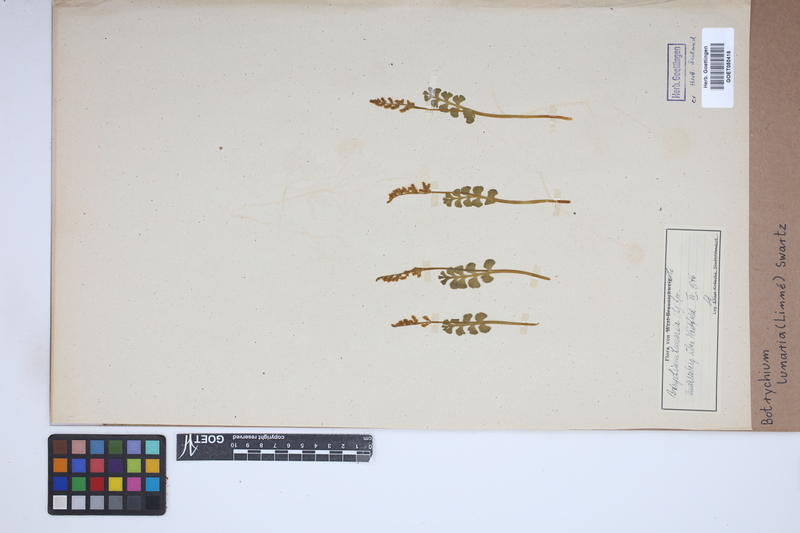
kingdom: Plantae
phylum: Tracheophyta
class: Polypodiopsida
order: Ophioglossales
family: Ophioglossaceae
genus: Botrychium
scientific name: Botrychium lunaria
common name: Moonwort
